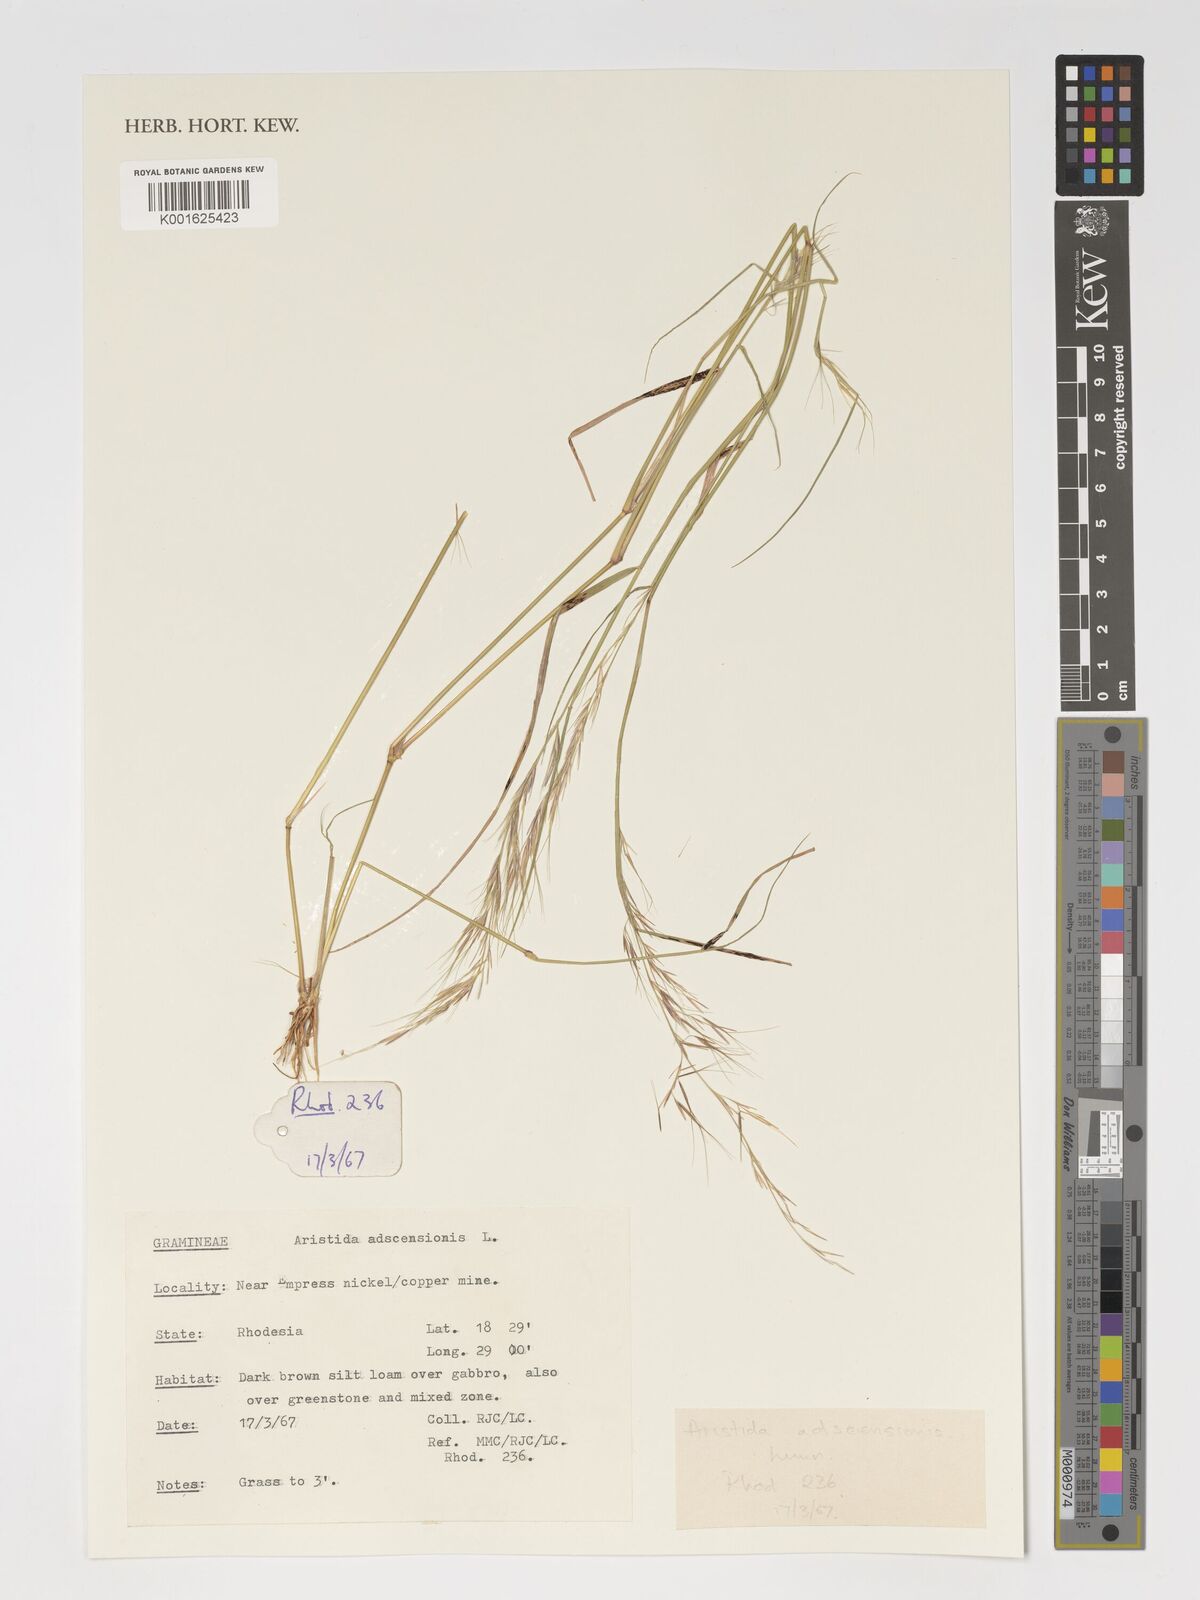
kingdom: Plantae
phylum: Tracheophyta
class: Liliopsida
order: Poales
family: Poaceae
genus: Aristida
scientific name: Aristida adscensionis
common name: Sixweeks threeawn
